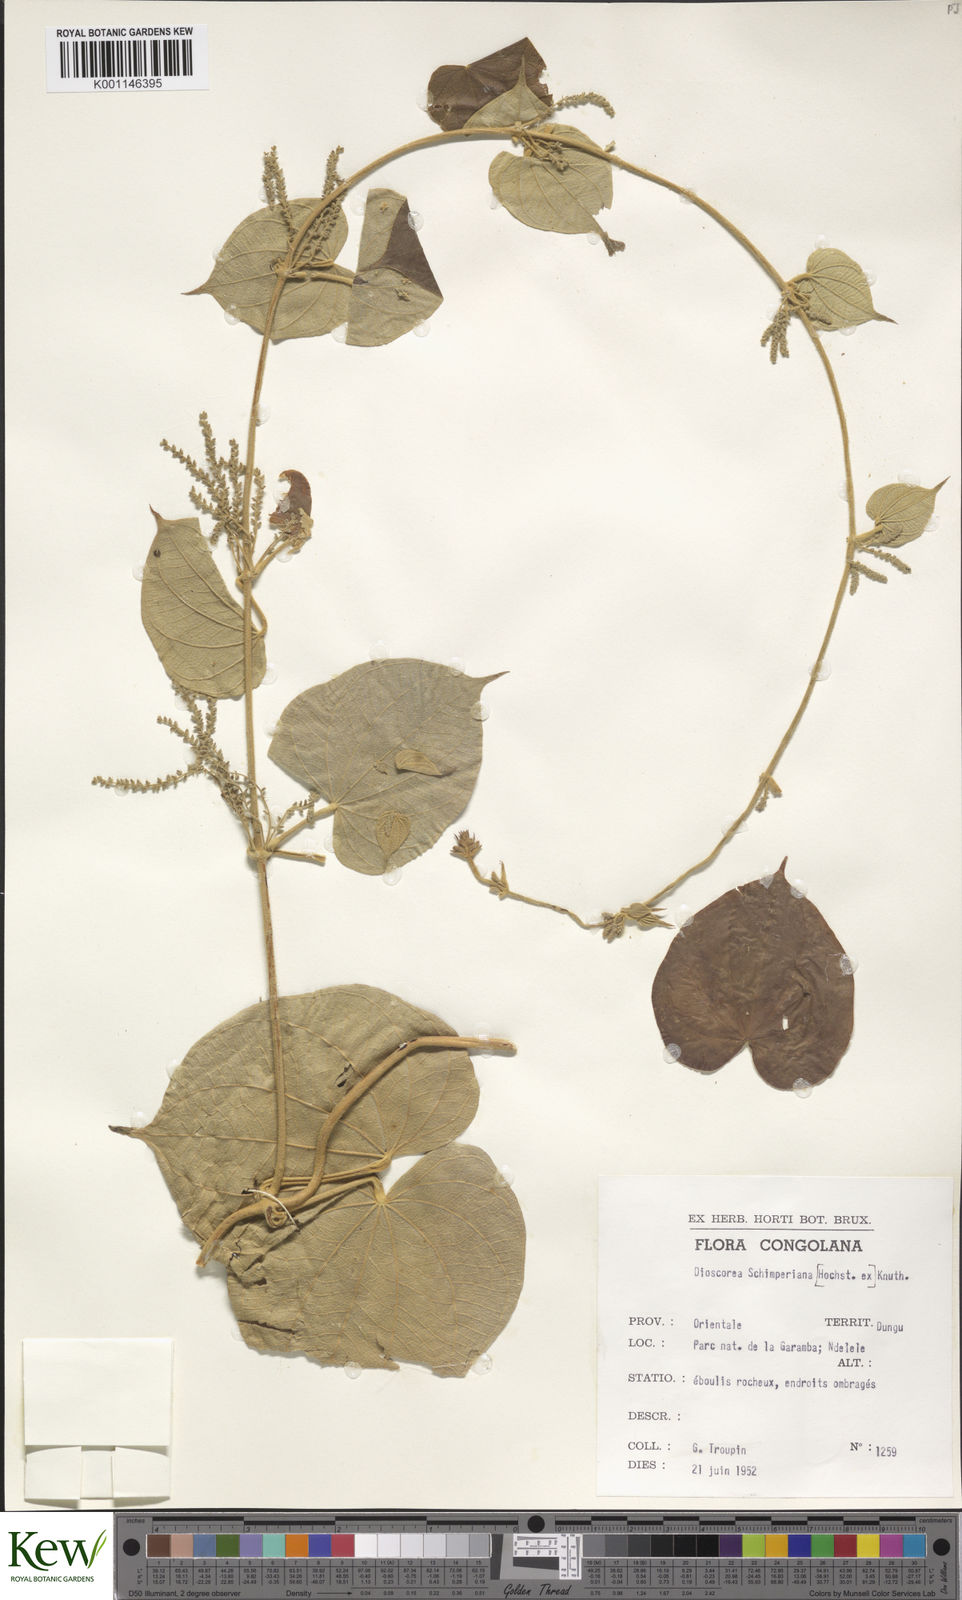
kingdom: Plantae
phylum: Tracheophyta
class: Liliopsida
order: Dioscoreales
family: Dioscoreaceae
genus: Dioscorea
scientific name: Dioscorea schimperiana
